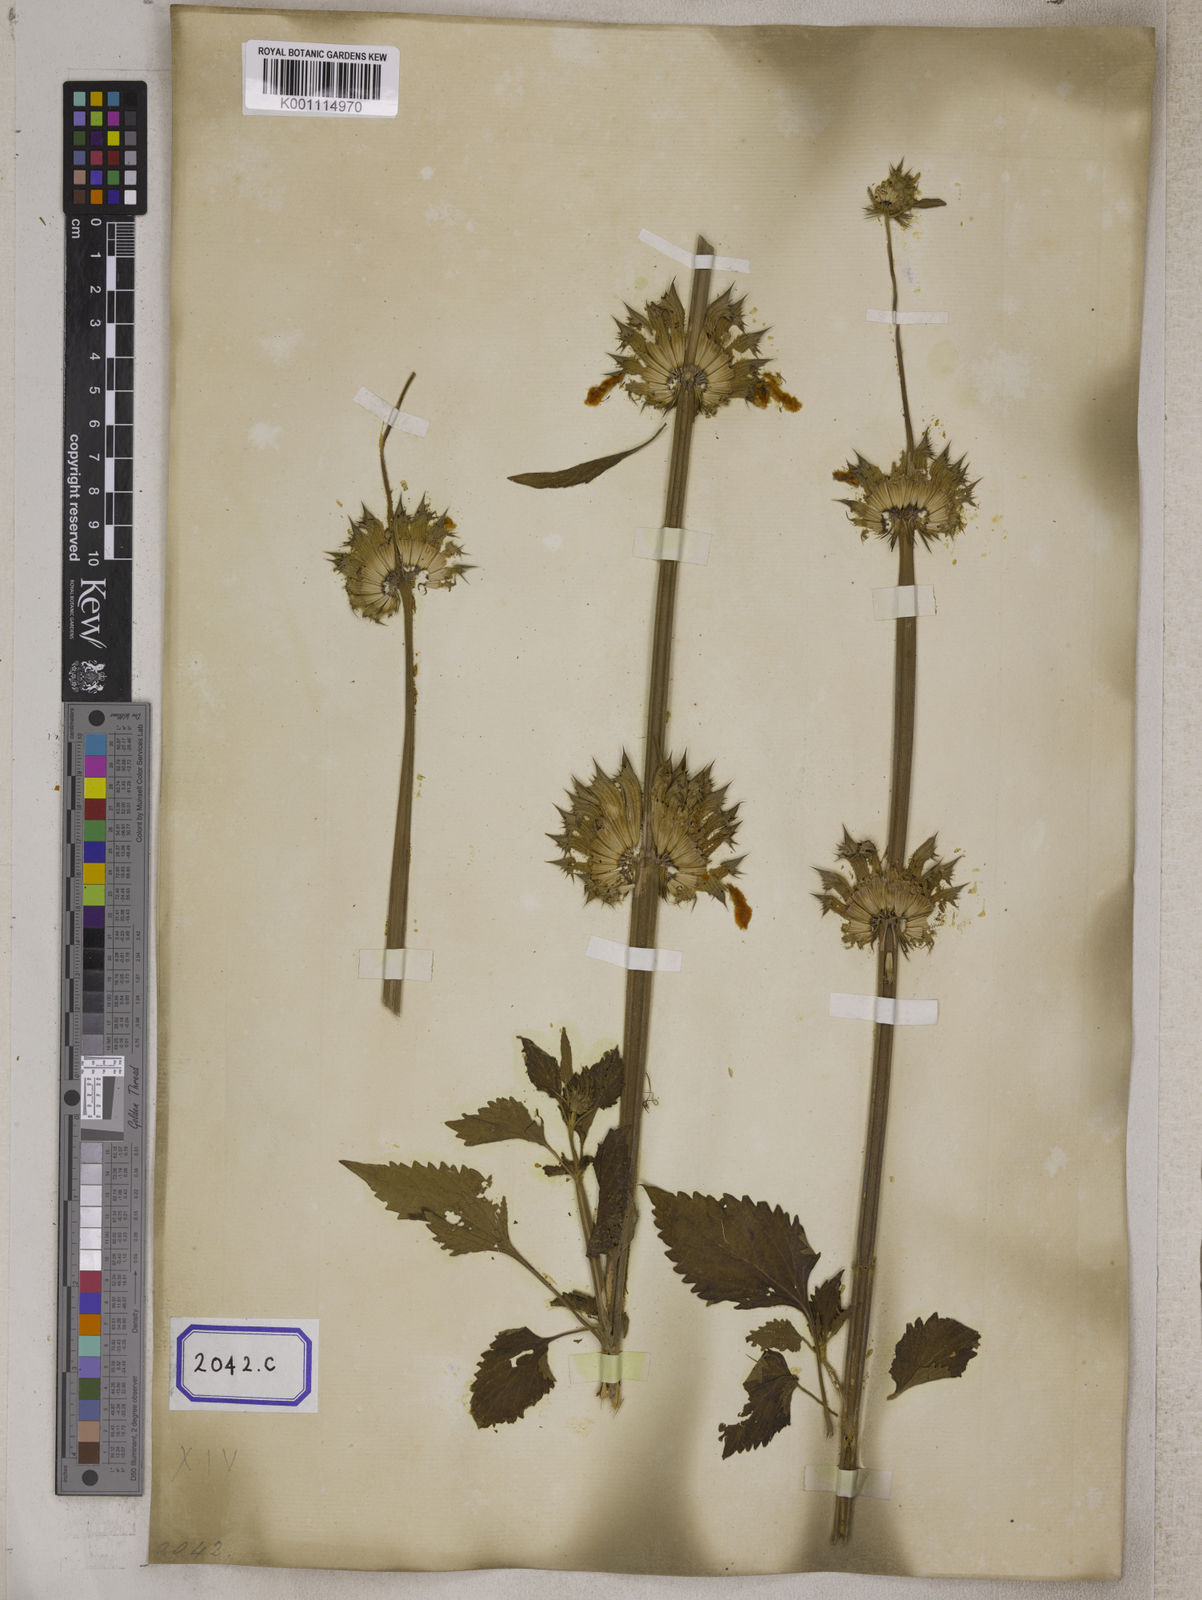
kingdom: Plantae
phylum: Tracheophyta
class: Magnoliopsida
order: Lamiales
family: Lamiaceae
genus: Leonotis
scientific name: Leonotis nepetifolia
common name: Christmas candlestick
